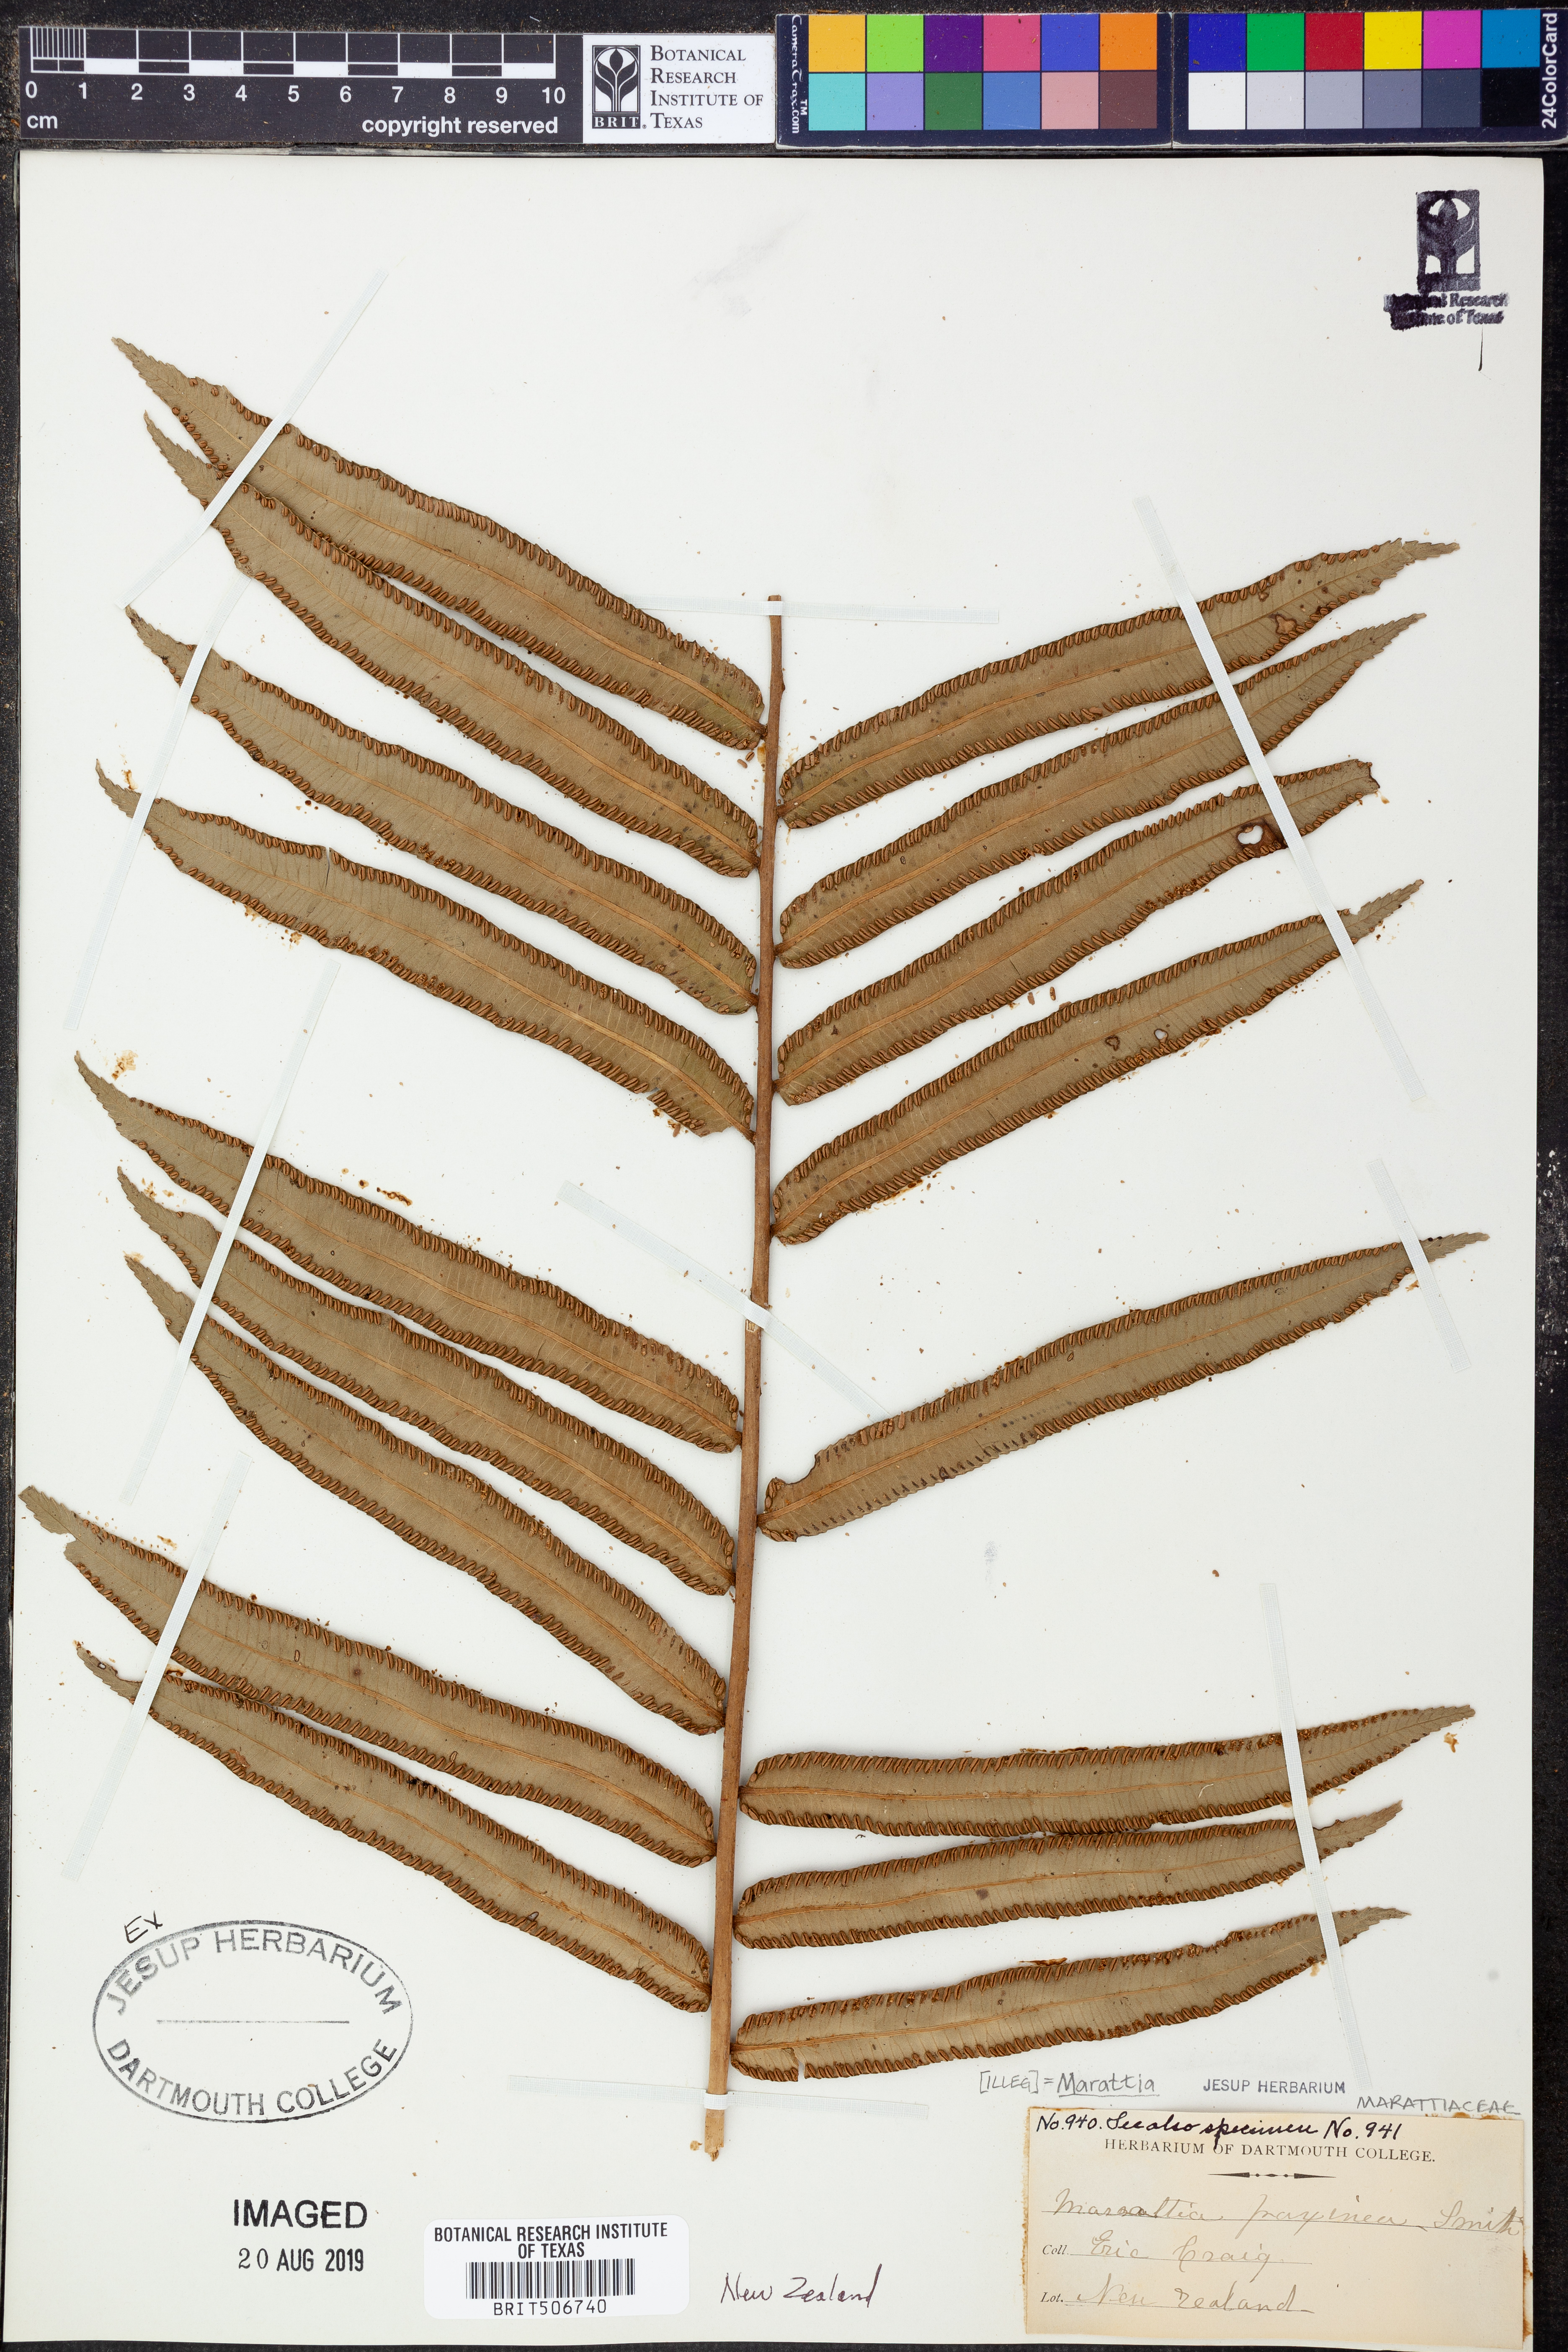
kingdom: Plantae
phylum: Tracheophyta
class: Polypodiopsida
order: Marattiales
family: Marattiaceae
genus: Ptisana
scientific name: Ptisana fraxinea
